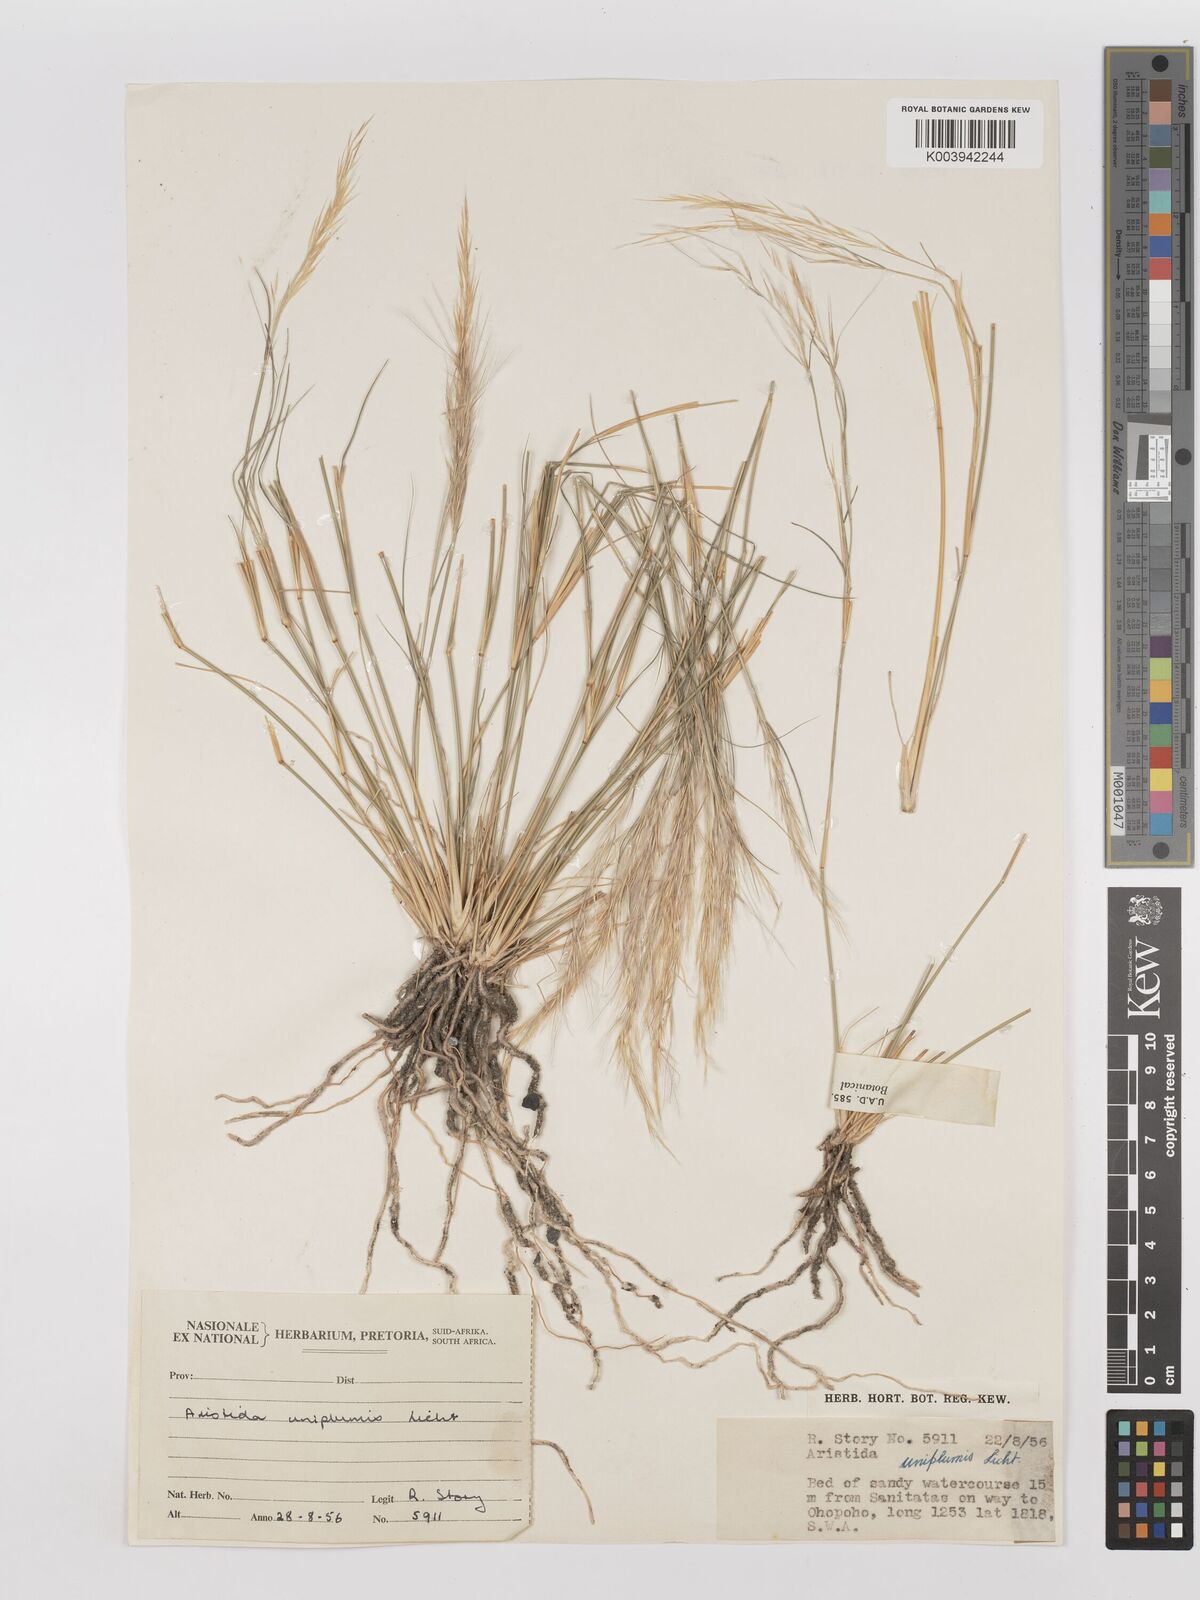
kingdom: Plantae
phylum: Tracheophyta
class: Liliopsida
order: Poales
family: Poaceae
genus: Stipagrostis
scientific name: Stipagrostis uniplumis
